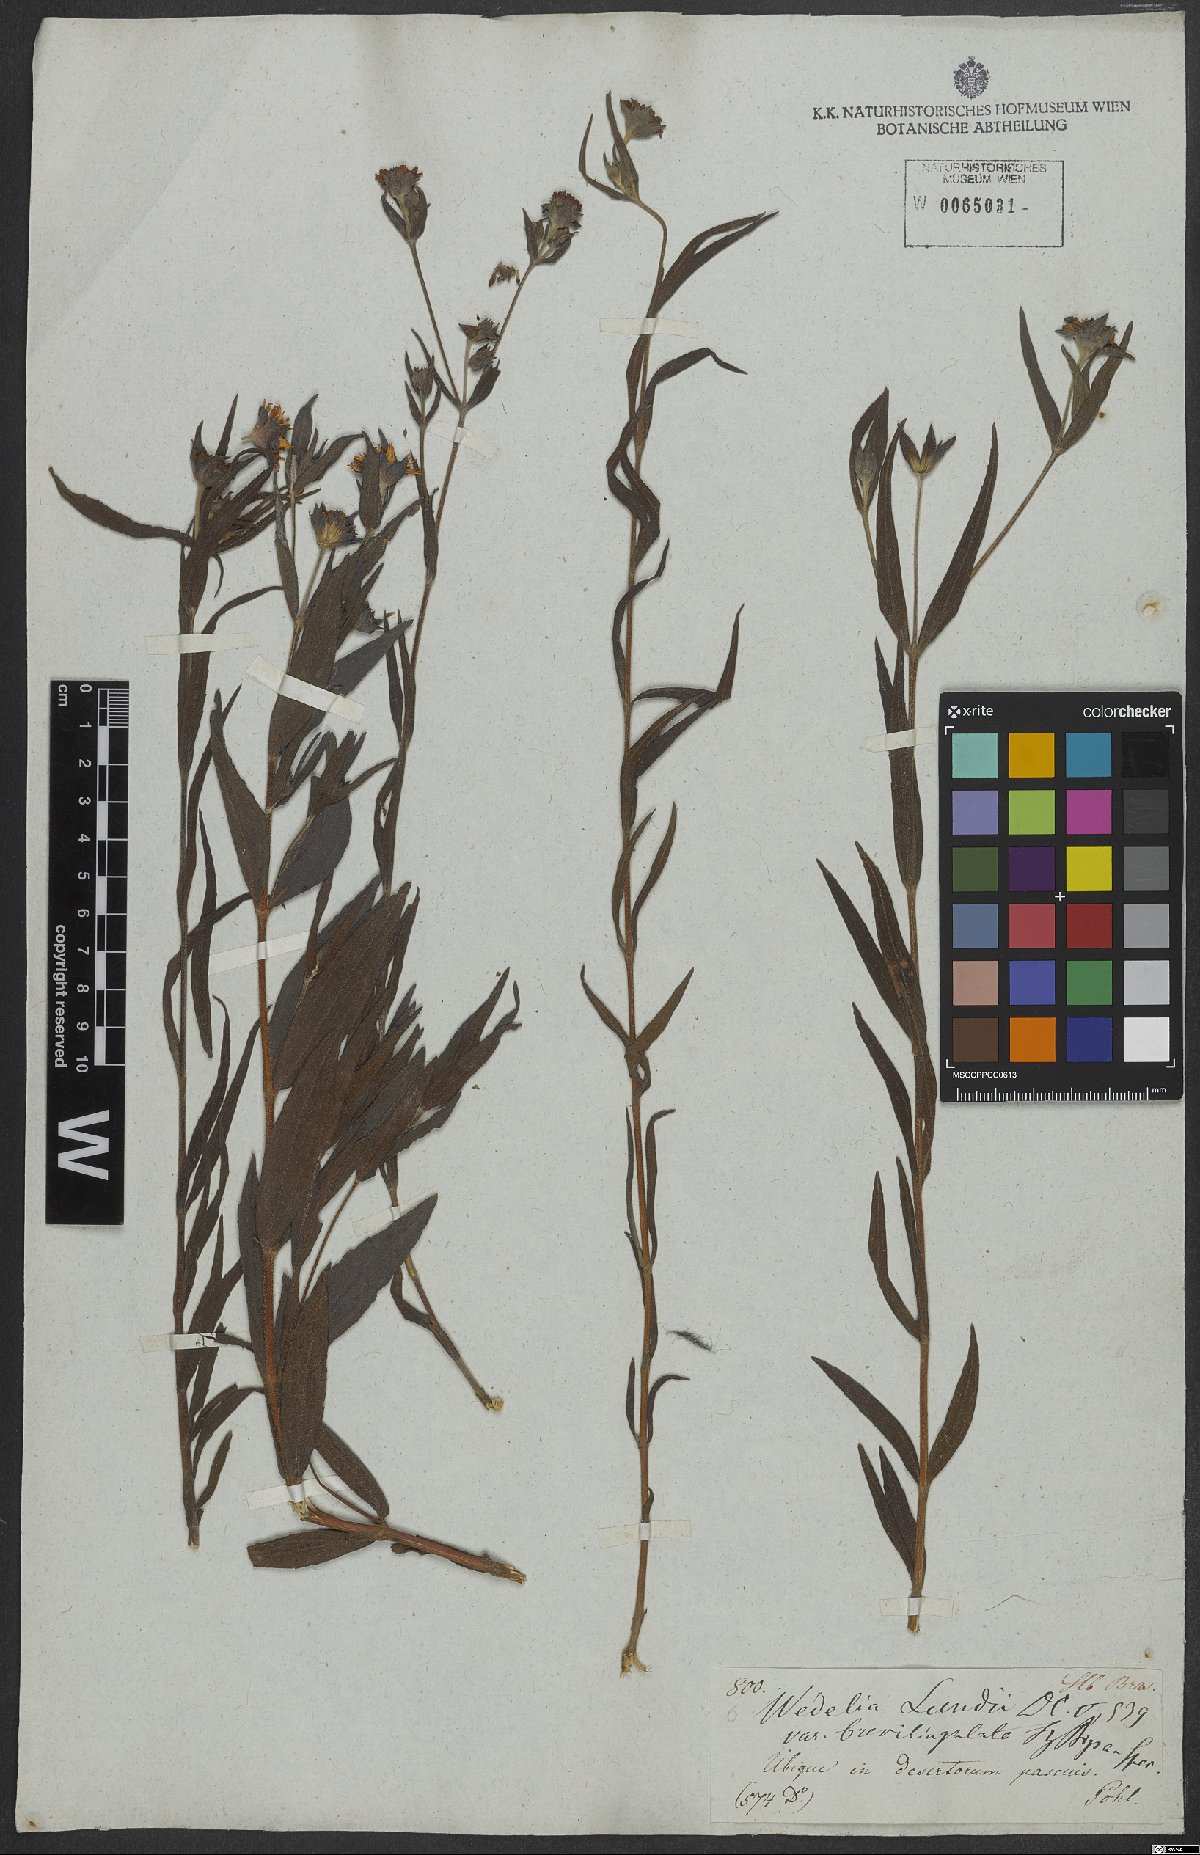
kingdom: Plantae
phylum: Tracheophyta
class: Magnoliopsida
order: Asterales
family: Asteraceae
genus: Wedelia
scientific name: Wedelia lundii
